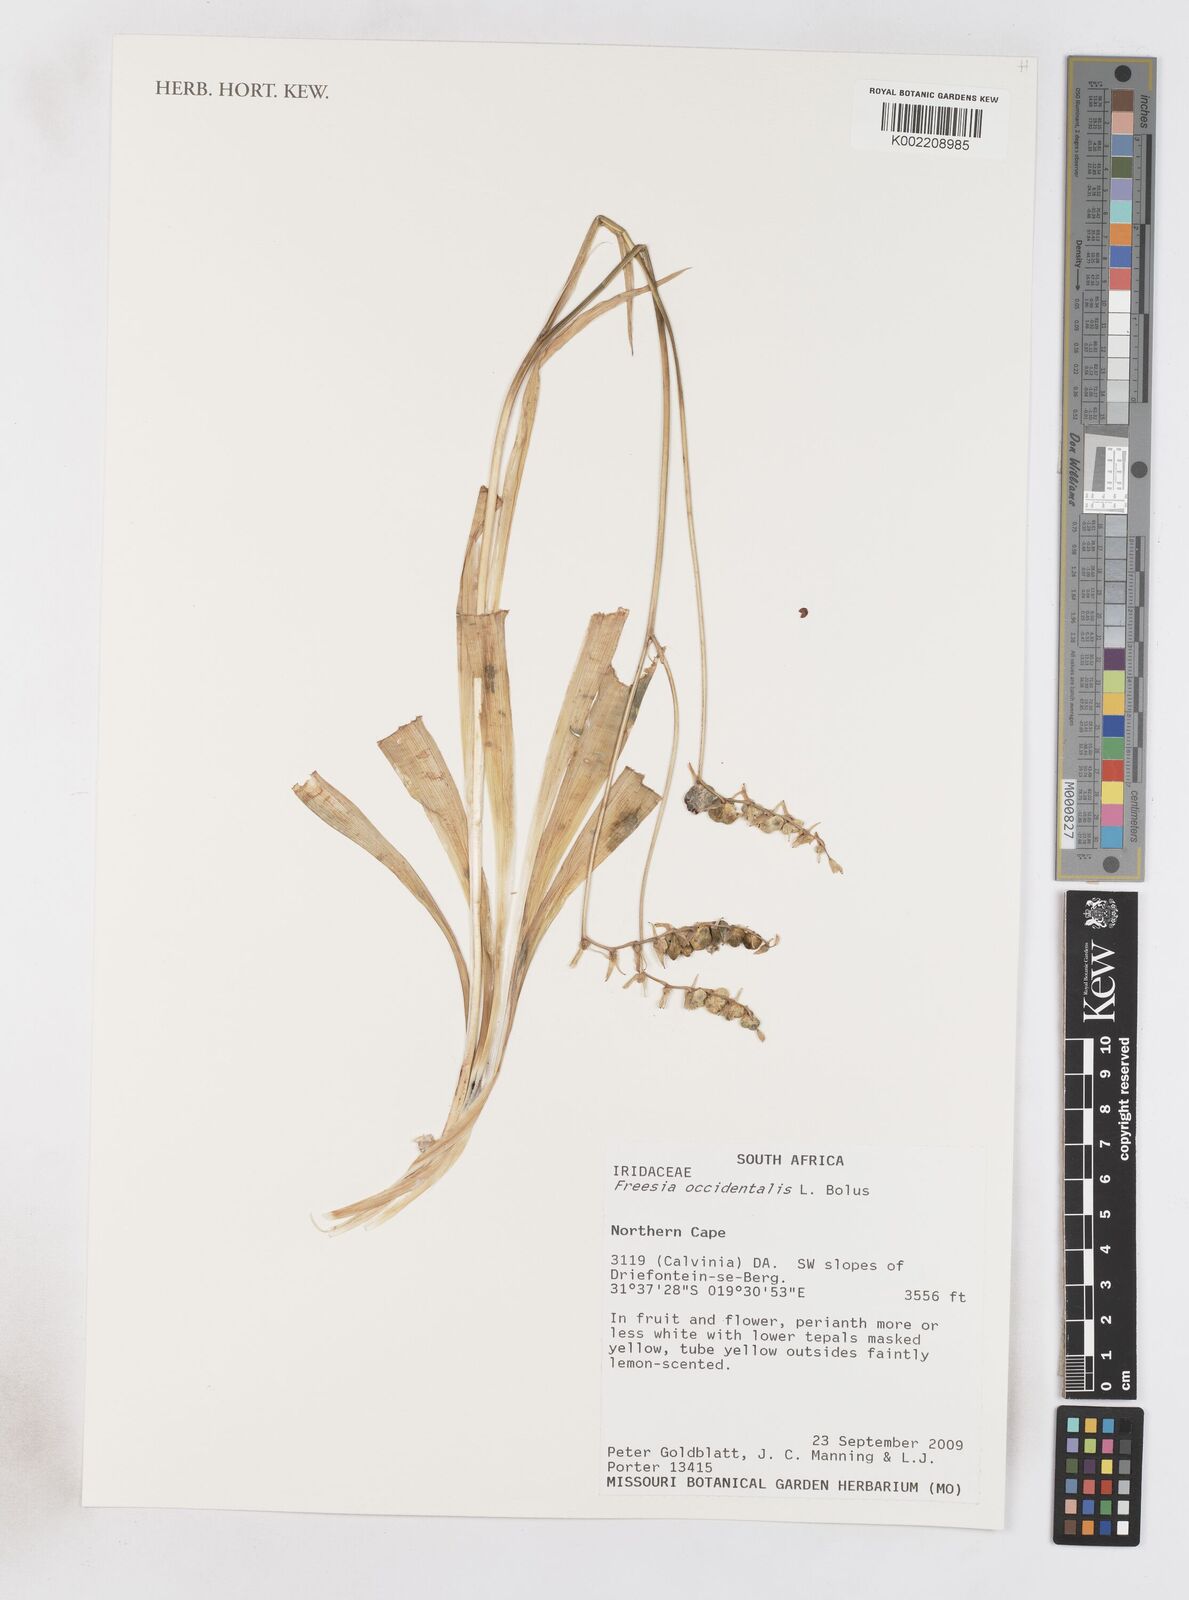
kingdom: Plantae
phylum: Tracheophyta
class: Liliopsida
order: Asparagales
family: Iridaceae
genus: Freesia
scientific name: Freesia occidentalis
